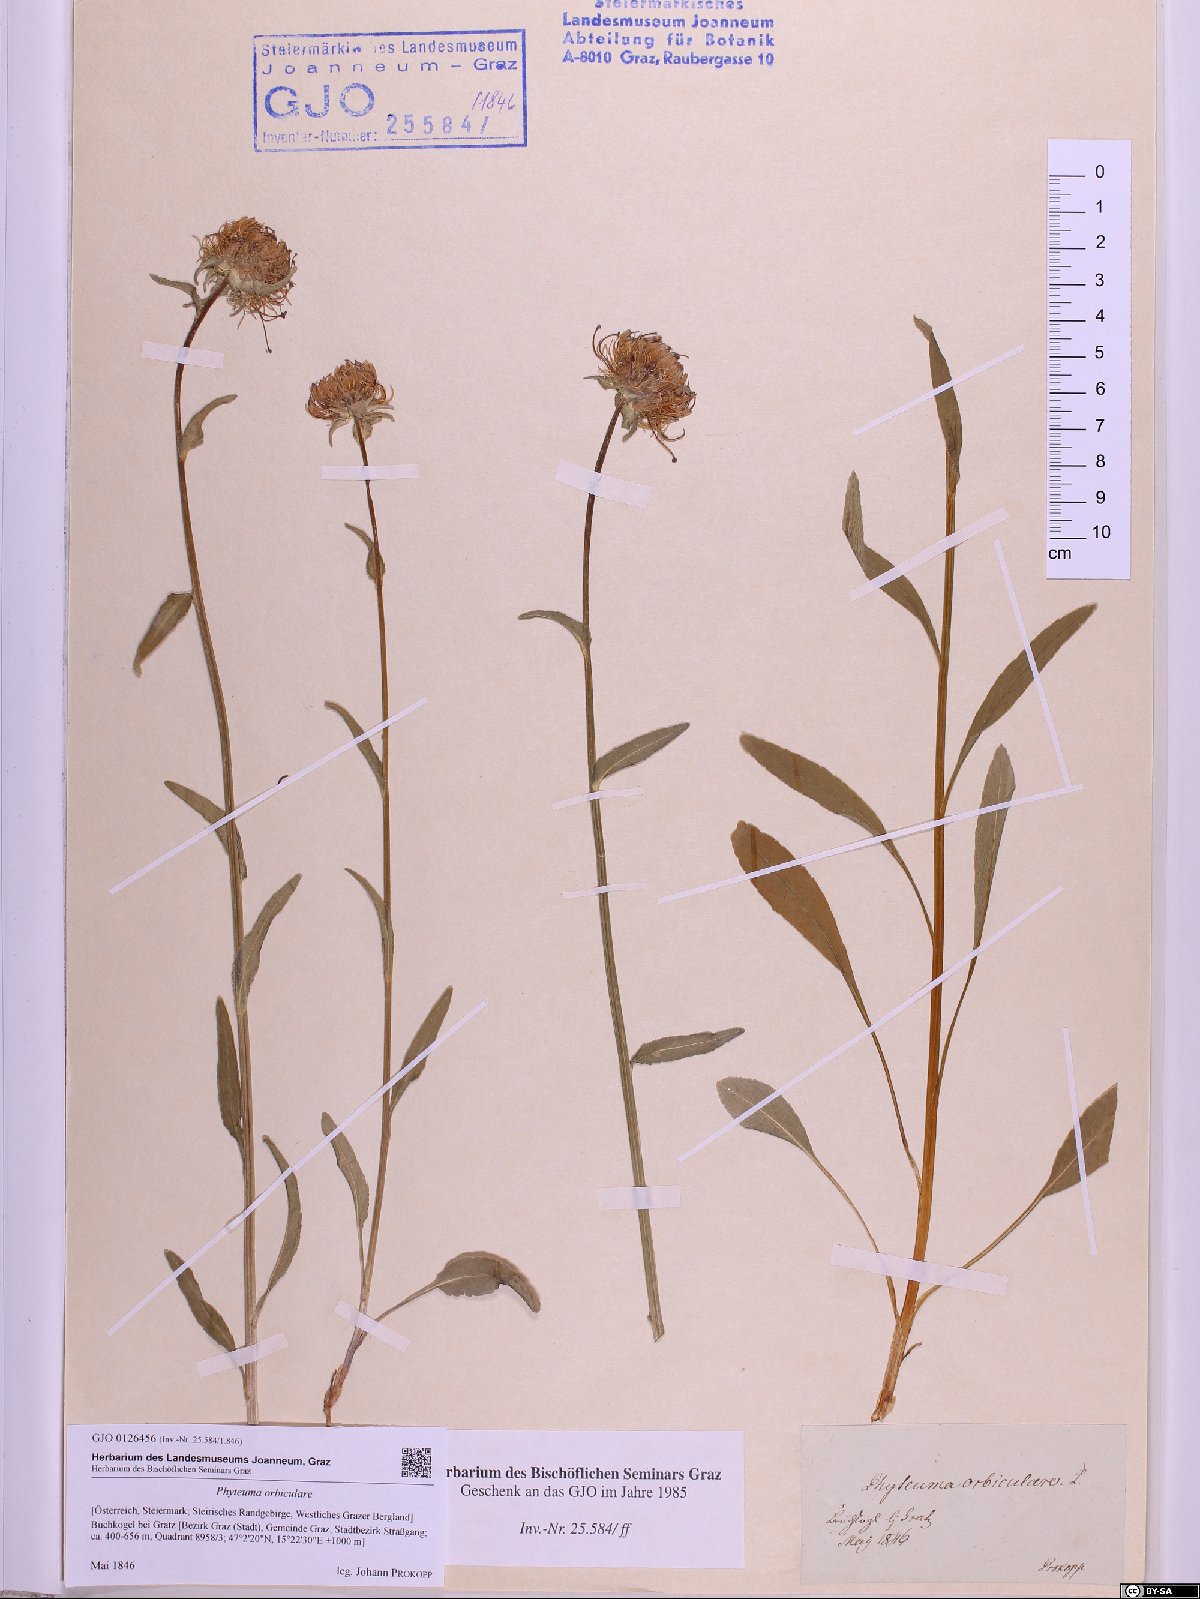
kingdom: Plantae
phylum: Tracheophyta
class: Magnoliopsida
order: Asterales
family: Campanulaceae
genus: Phyteuma
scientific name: Phyteuma orbiculare
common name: Round-headed rampion
